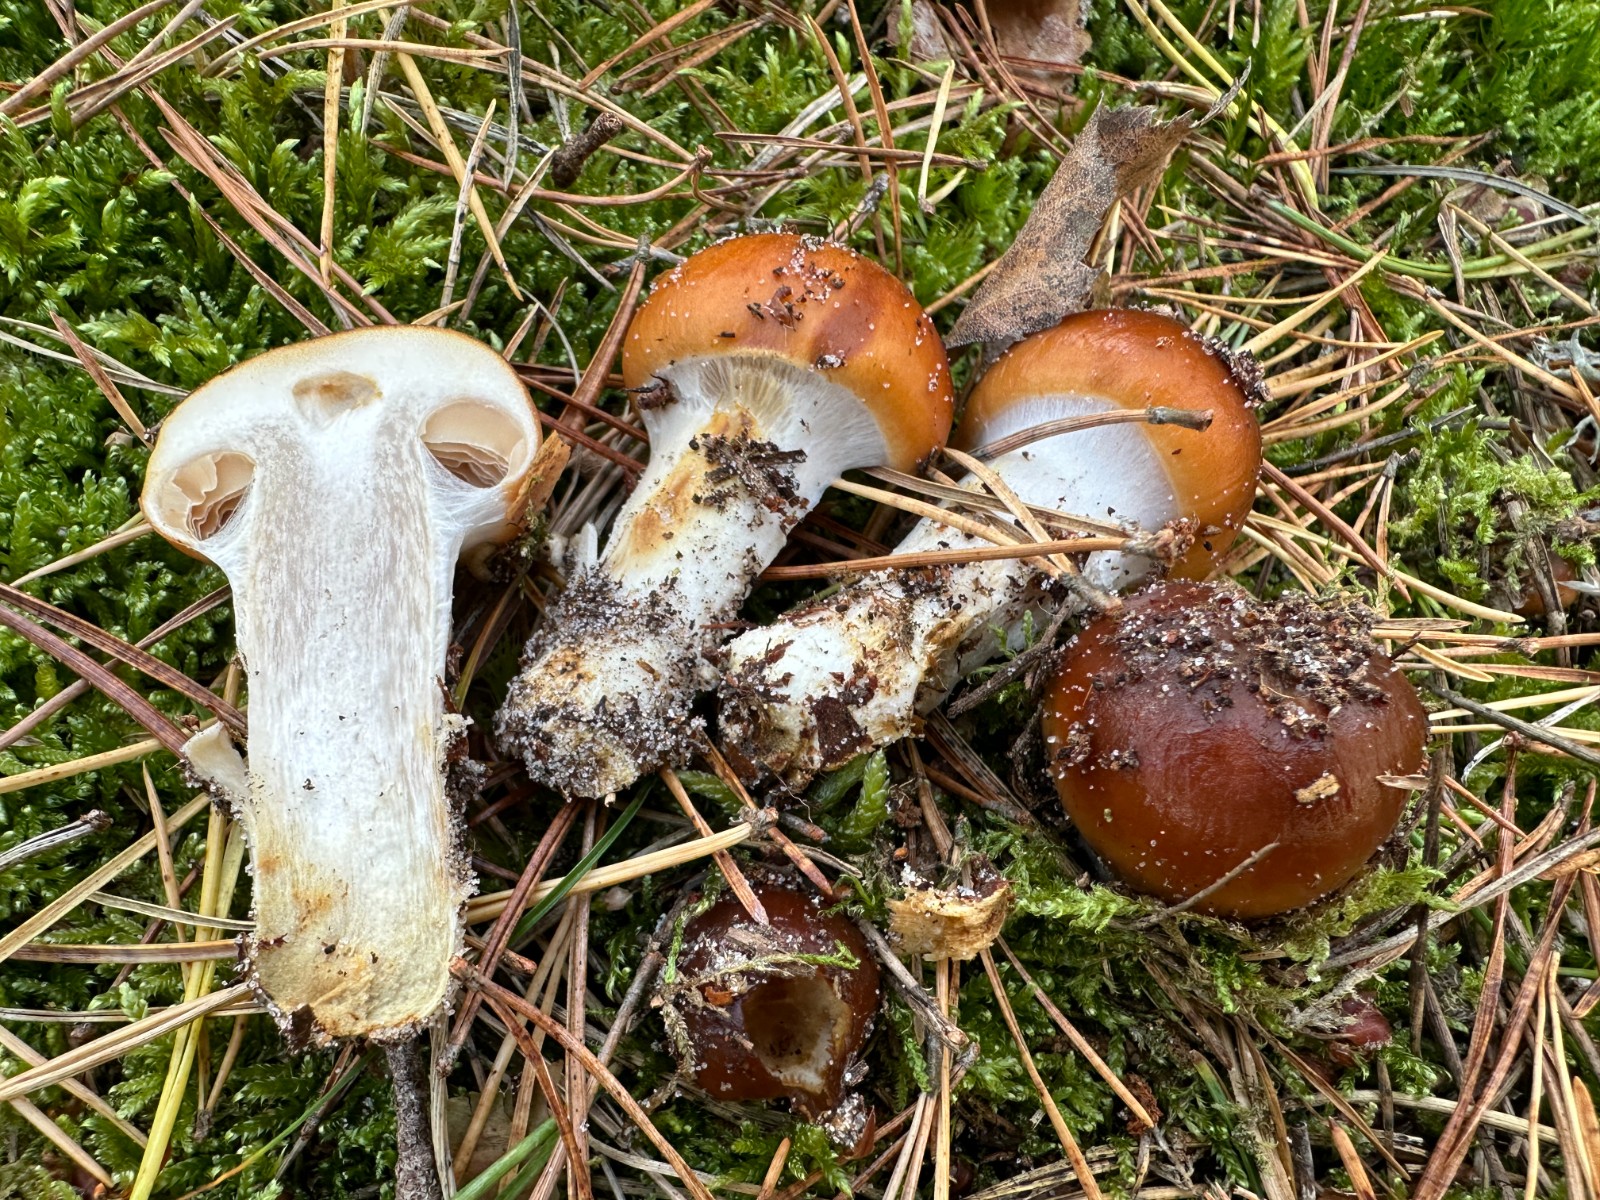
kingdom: Fungi
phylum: Basidiomycota
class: Agaricomycetes
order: Agaricales
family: Cortinariaceae
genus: Cortinarius
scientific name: Cortinarius mucosus
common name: kastaniebrun slørhat
